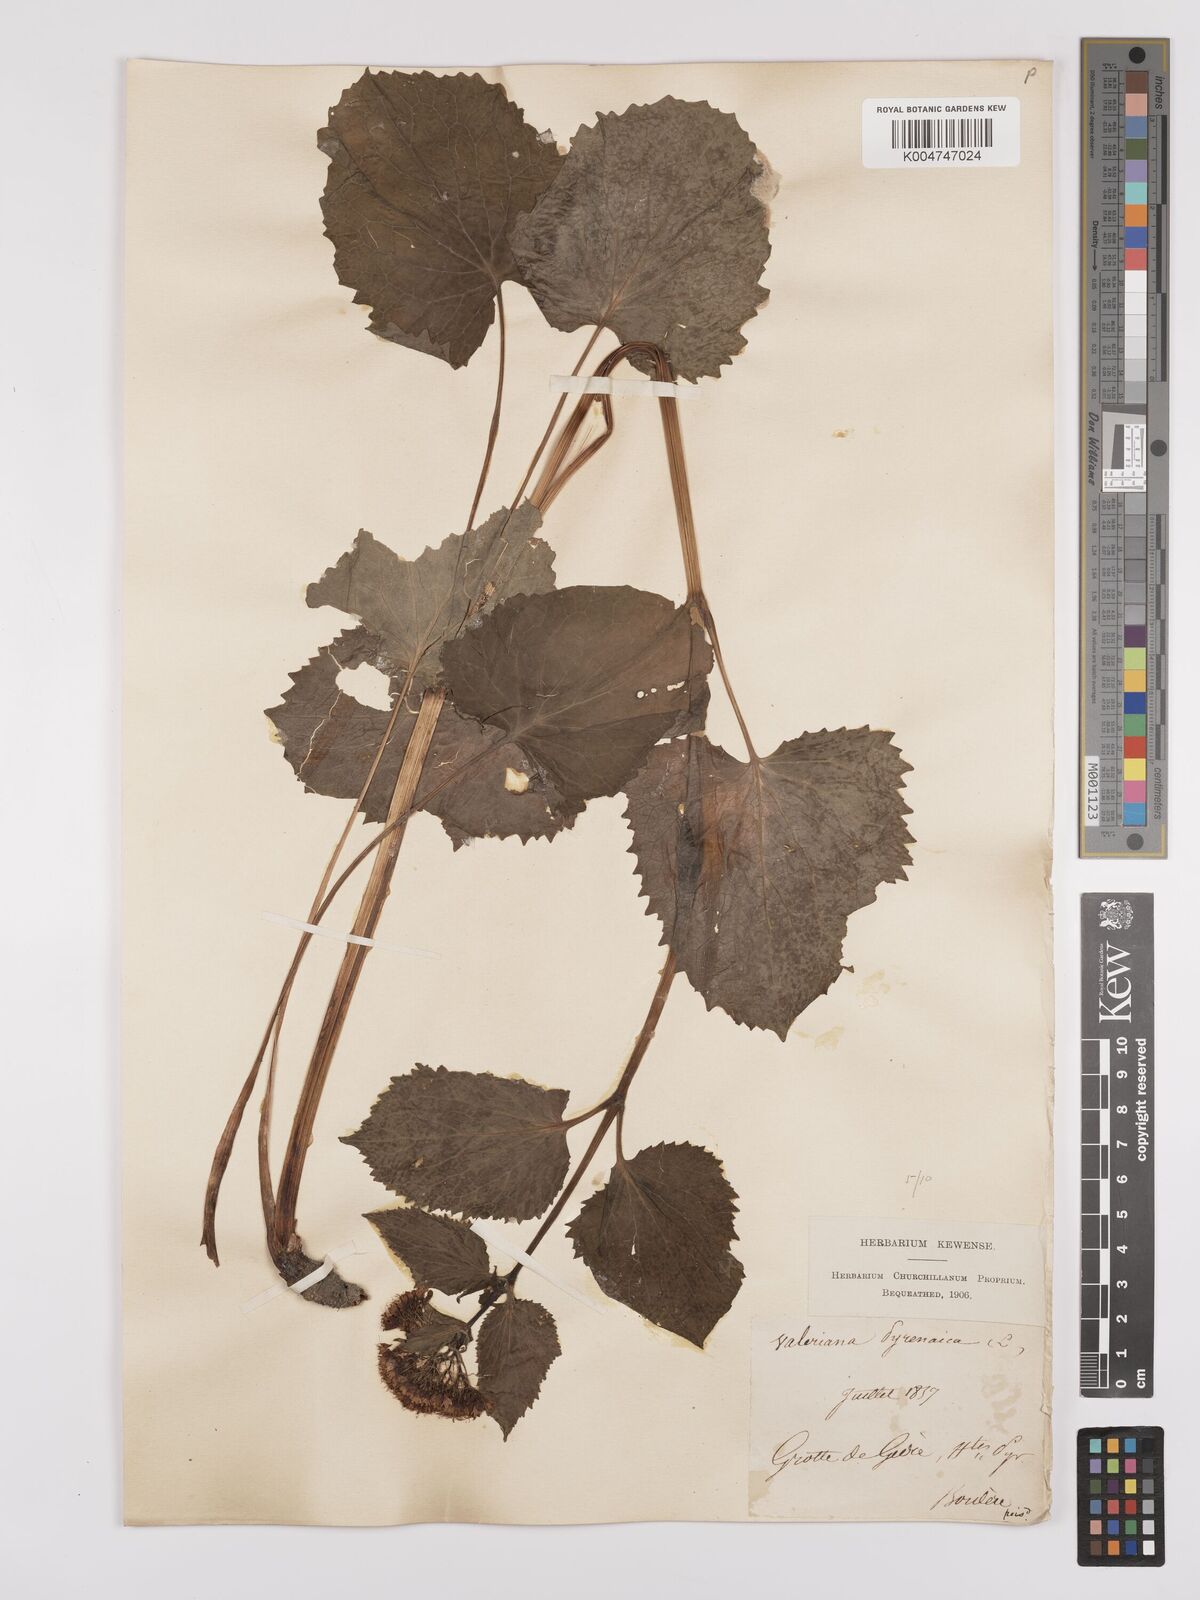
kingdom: Plantae
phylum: Tracheophyta
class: Magnoliopsida
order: Dipsacales
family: Caprifoliaceae
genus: Valeriana
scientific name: Valeriana pyrenaica
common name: Pyrenean valerian
